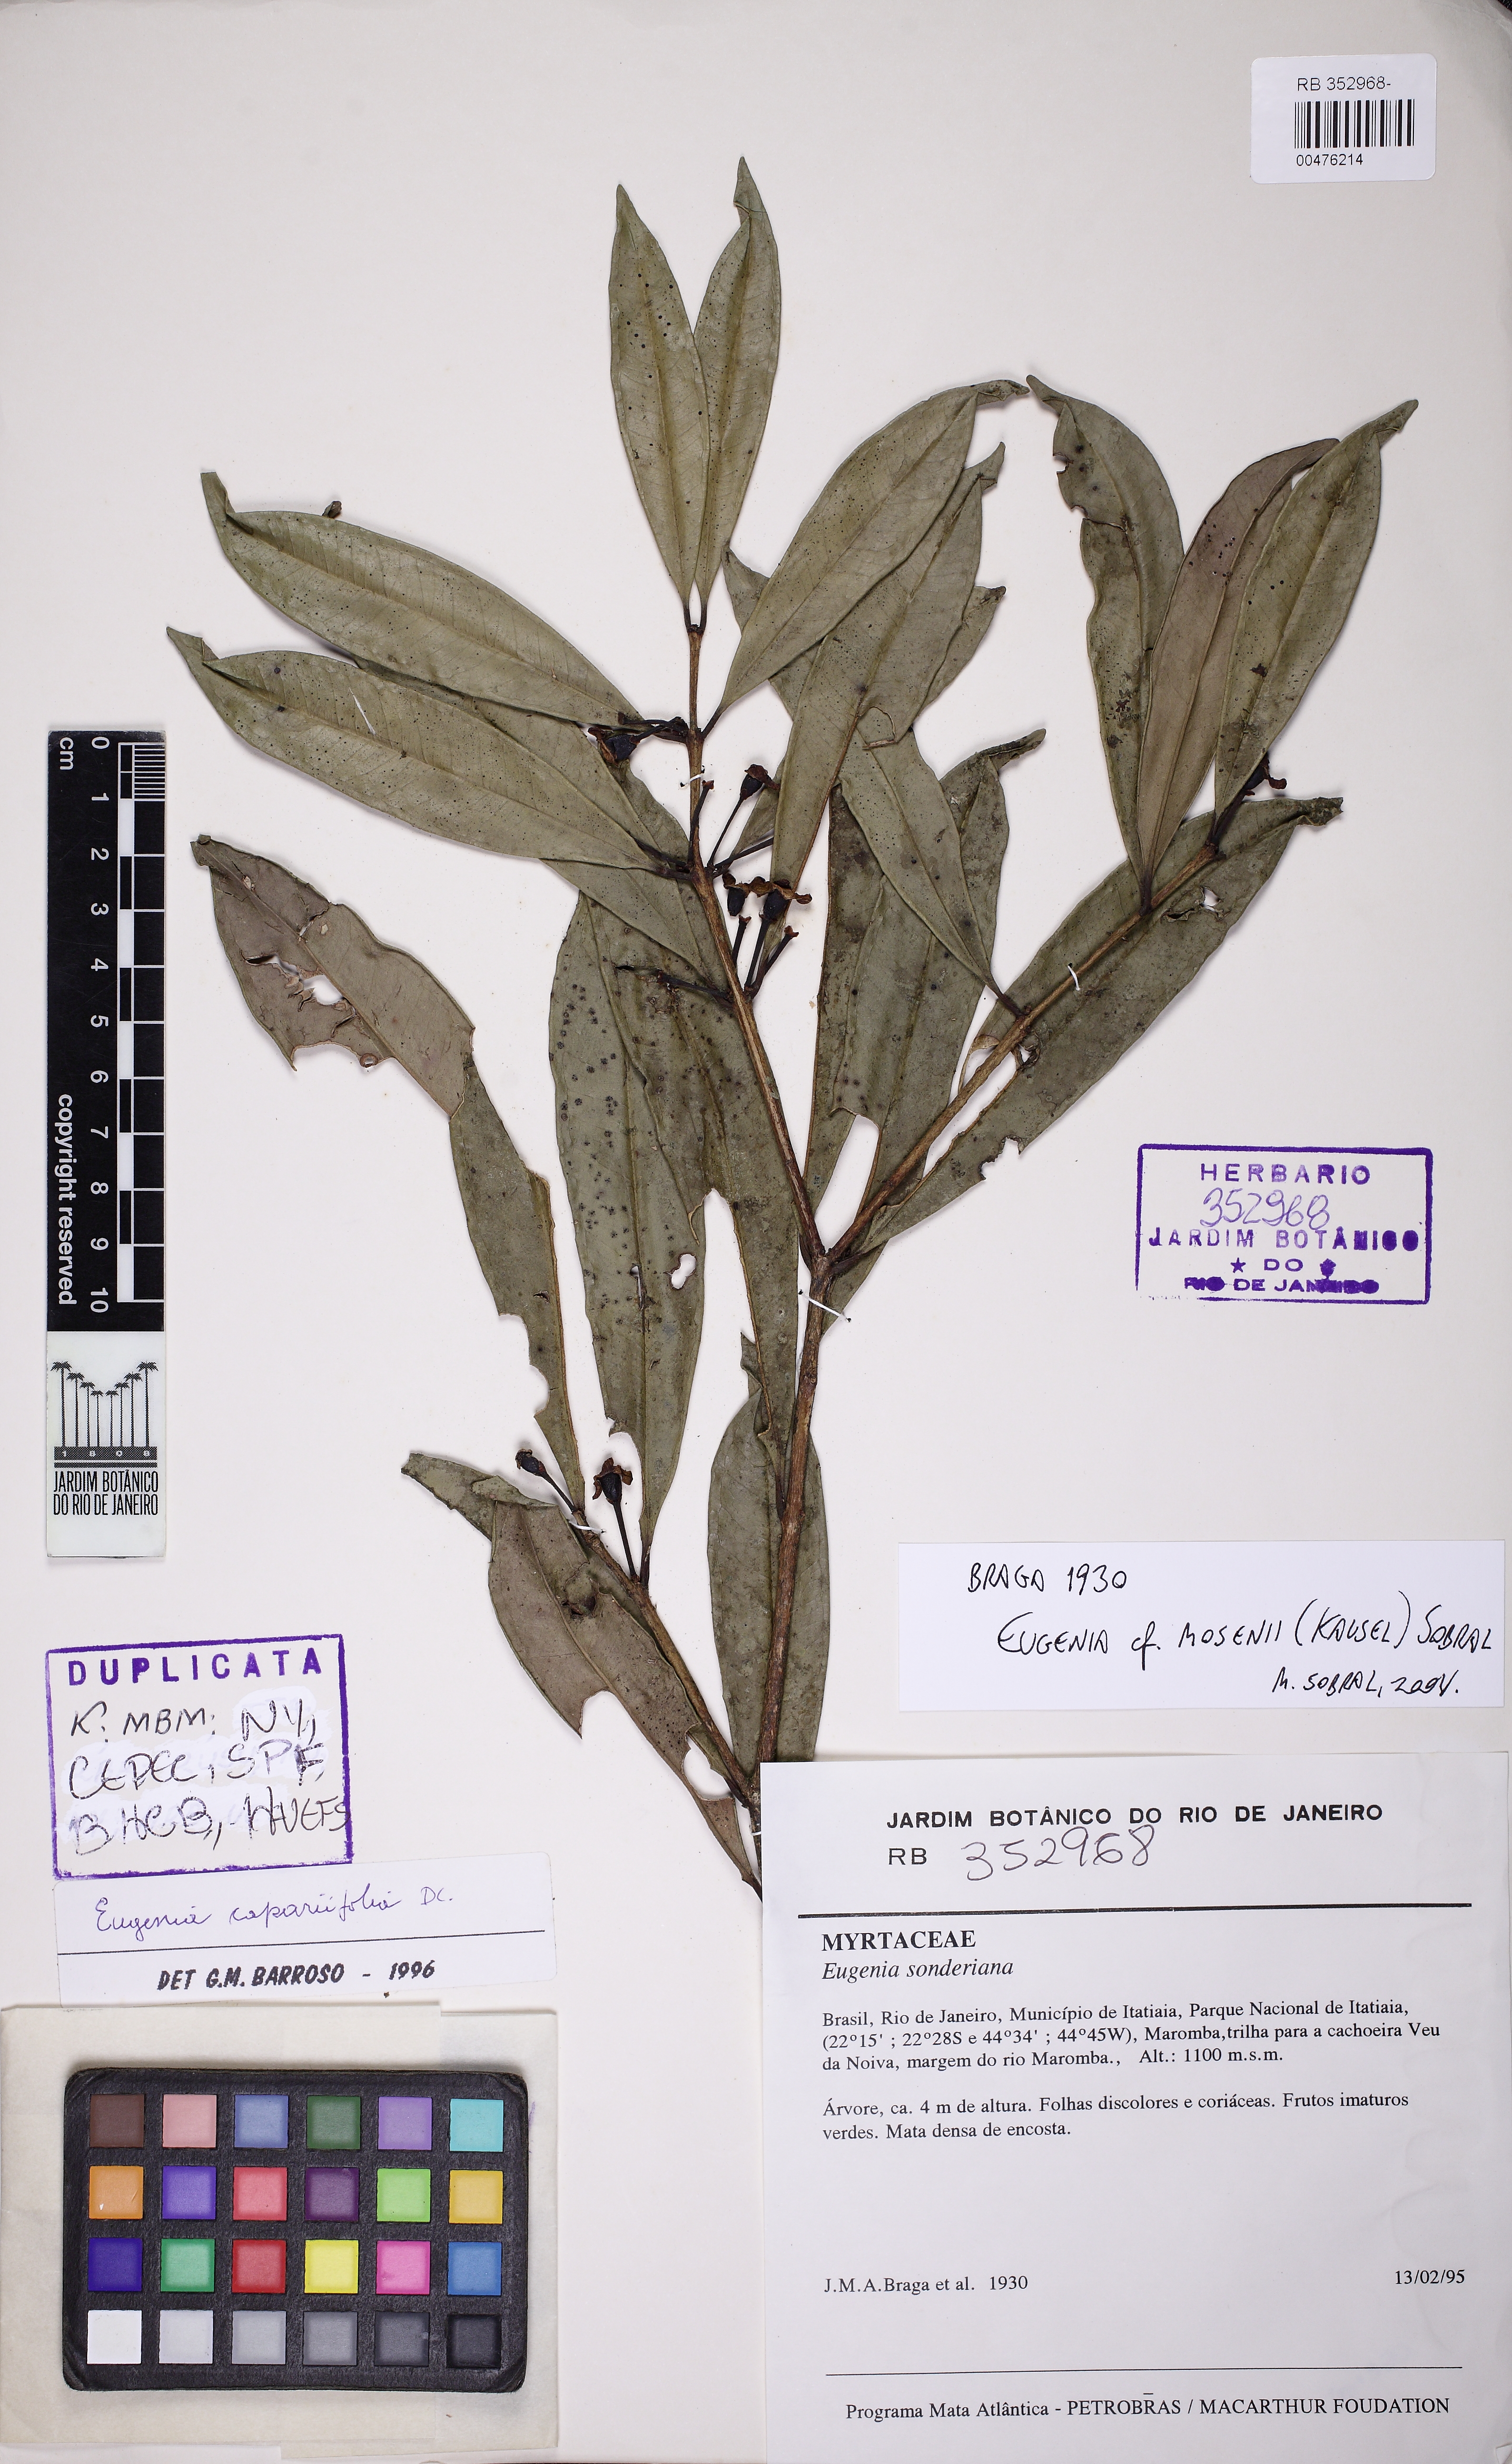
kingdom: Plantae
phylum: Tracheophyta
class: Magnoliopsida
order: Myrtales
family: Myrtaceae
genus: Eugenia
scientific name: Eugenia mosenii
